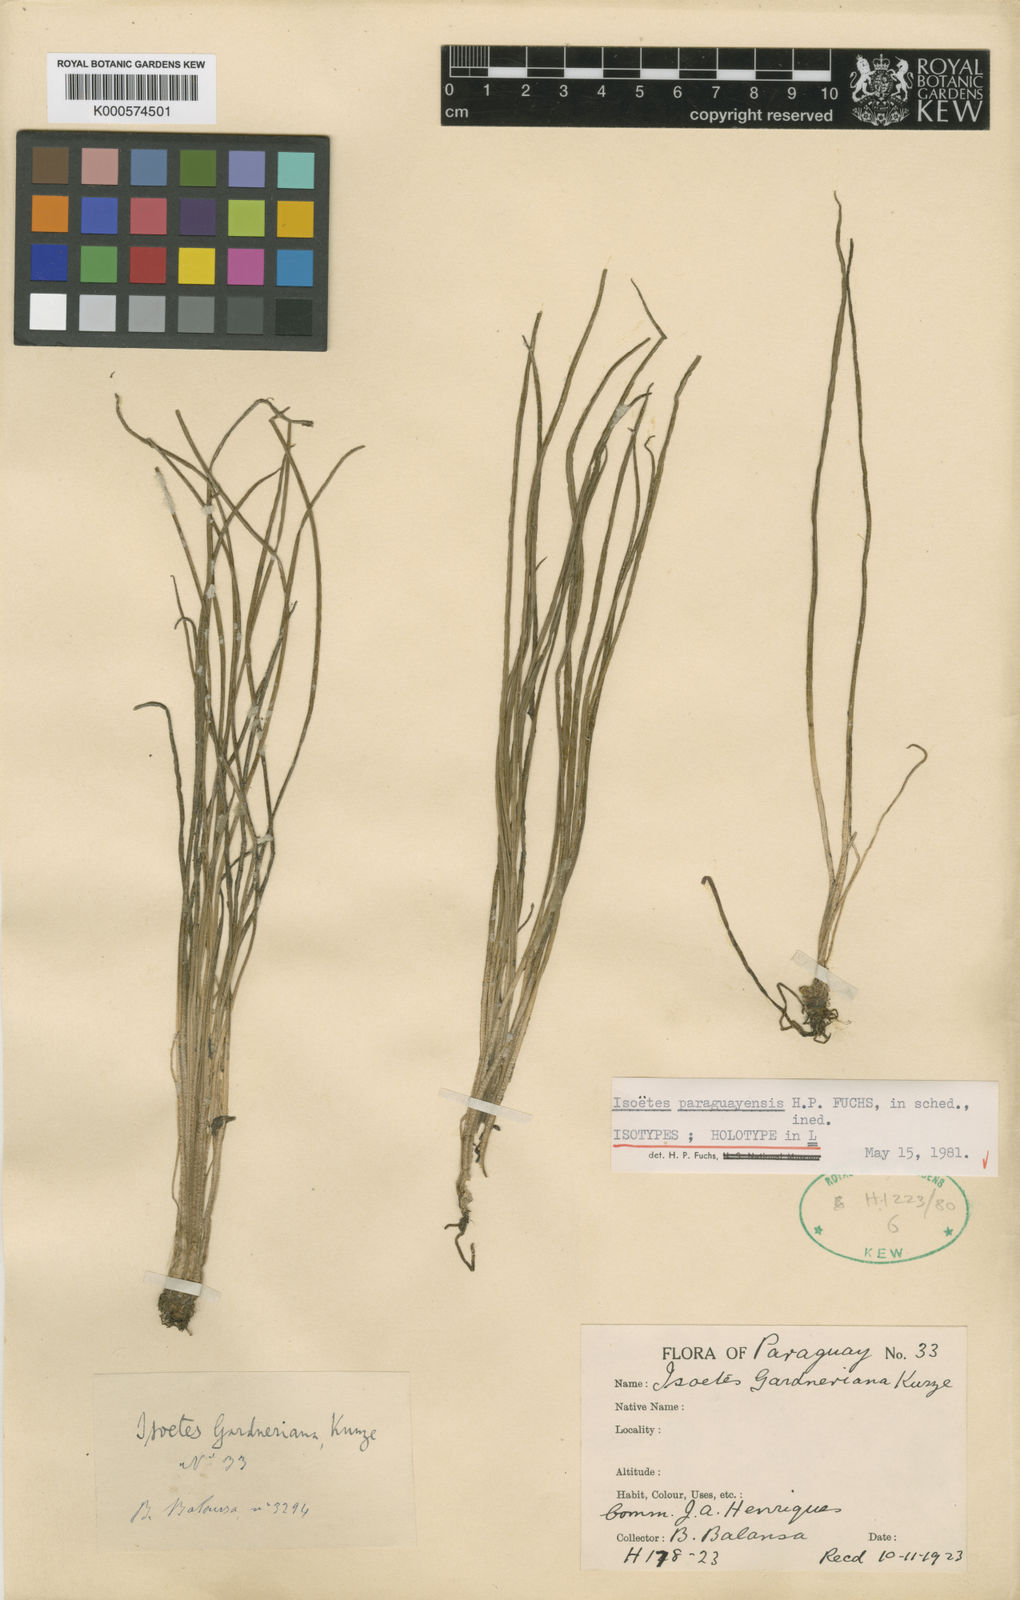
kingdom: Plantae
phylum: Tracheophyta
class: Lycopodiopsida
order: Isoetales
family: Isoetaceae
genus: Isoetes
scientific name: Isoetes gardneriana
